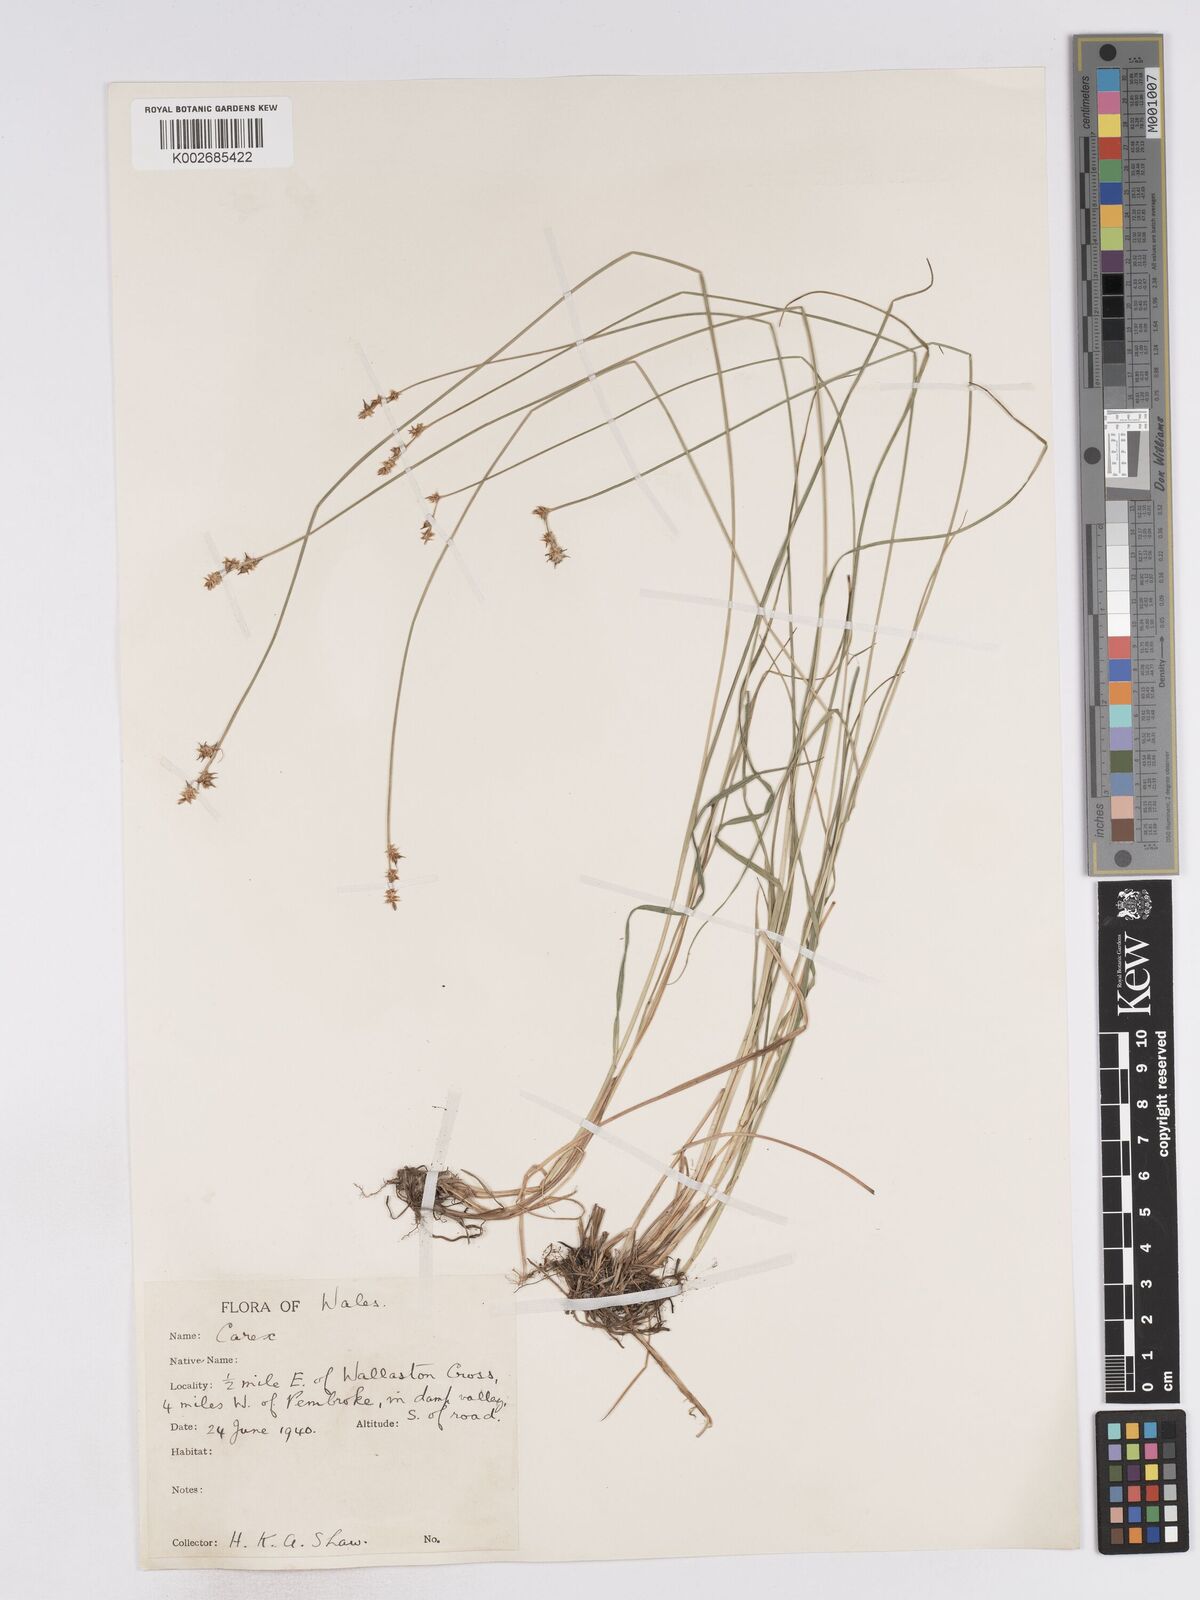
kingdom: Plantae
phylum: Tracheophyta
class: Liliopsida
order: Poales
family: Cyperaceae
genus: Carex
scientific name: Carex echinata
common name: Star sedge
